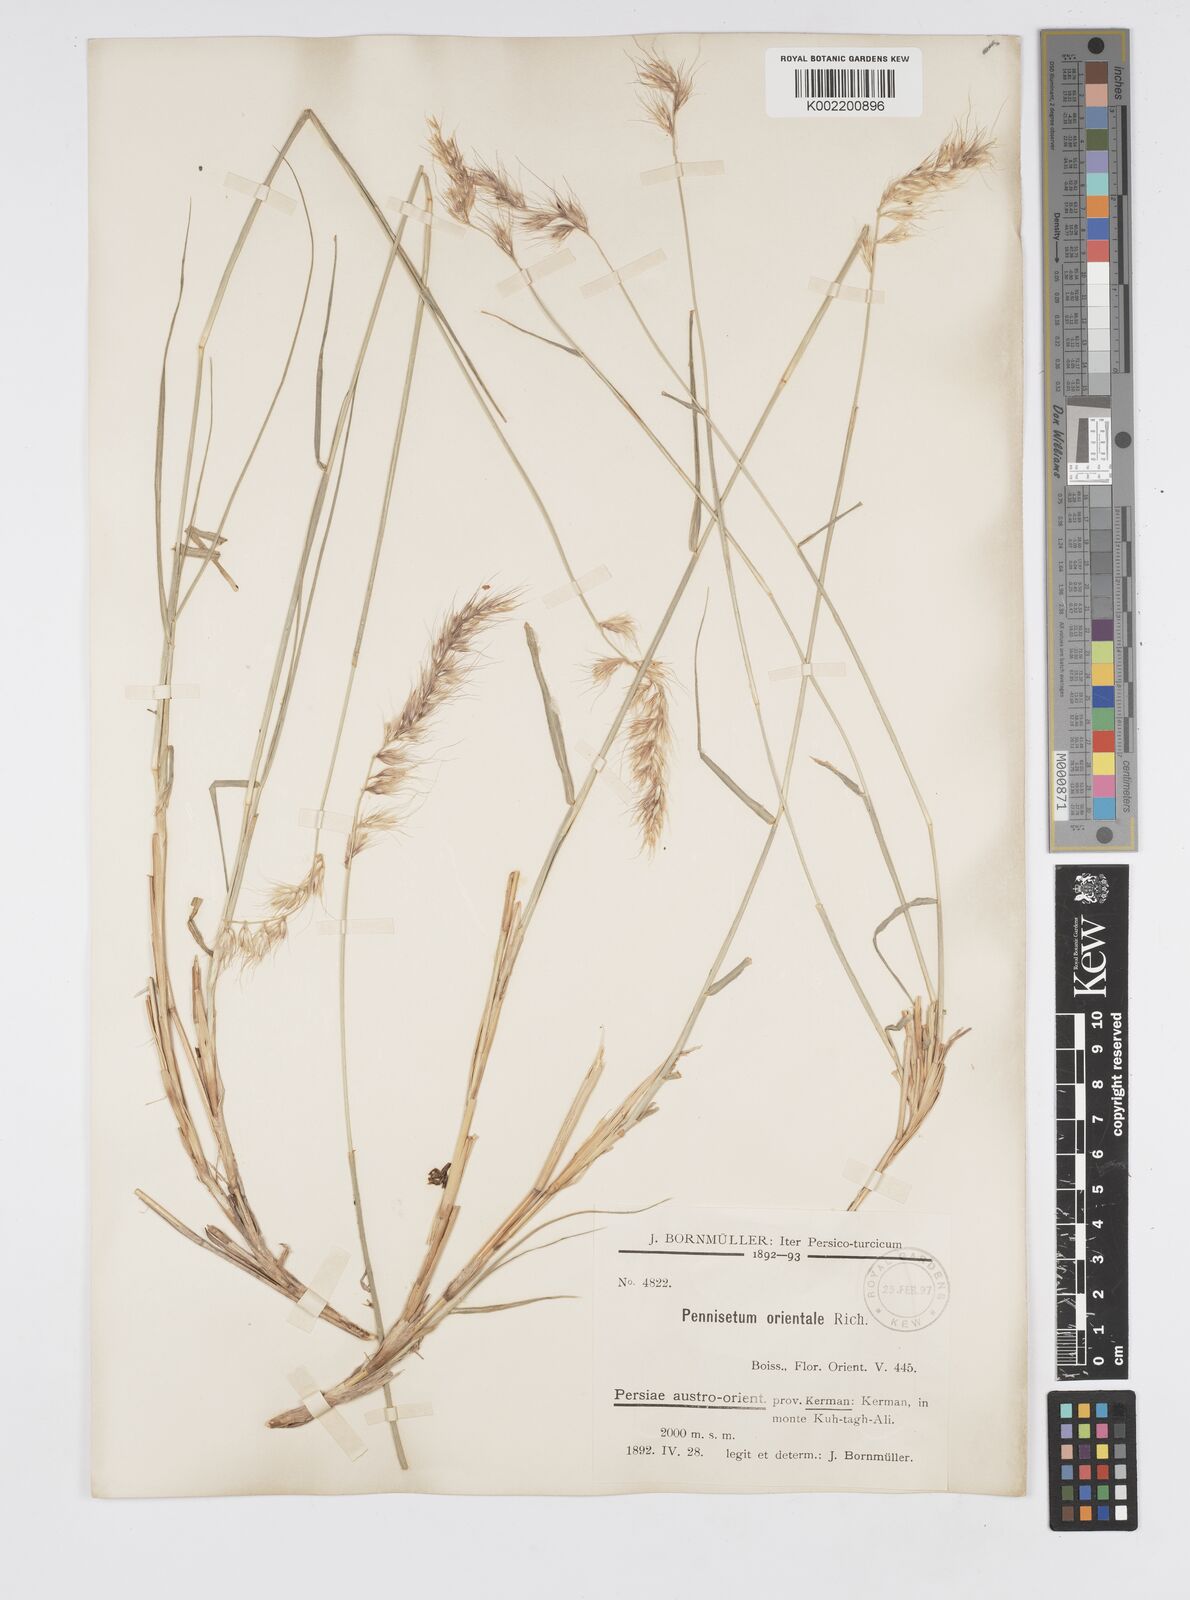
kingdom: Plantae
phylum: Tracheophyta
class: Liliopsida
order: Poales
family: Poaceae
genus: Cenchrus
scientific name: Cenchrus orientalis
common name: Oriental fountain grass
